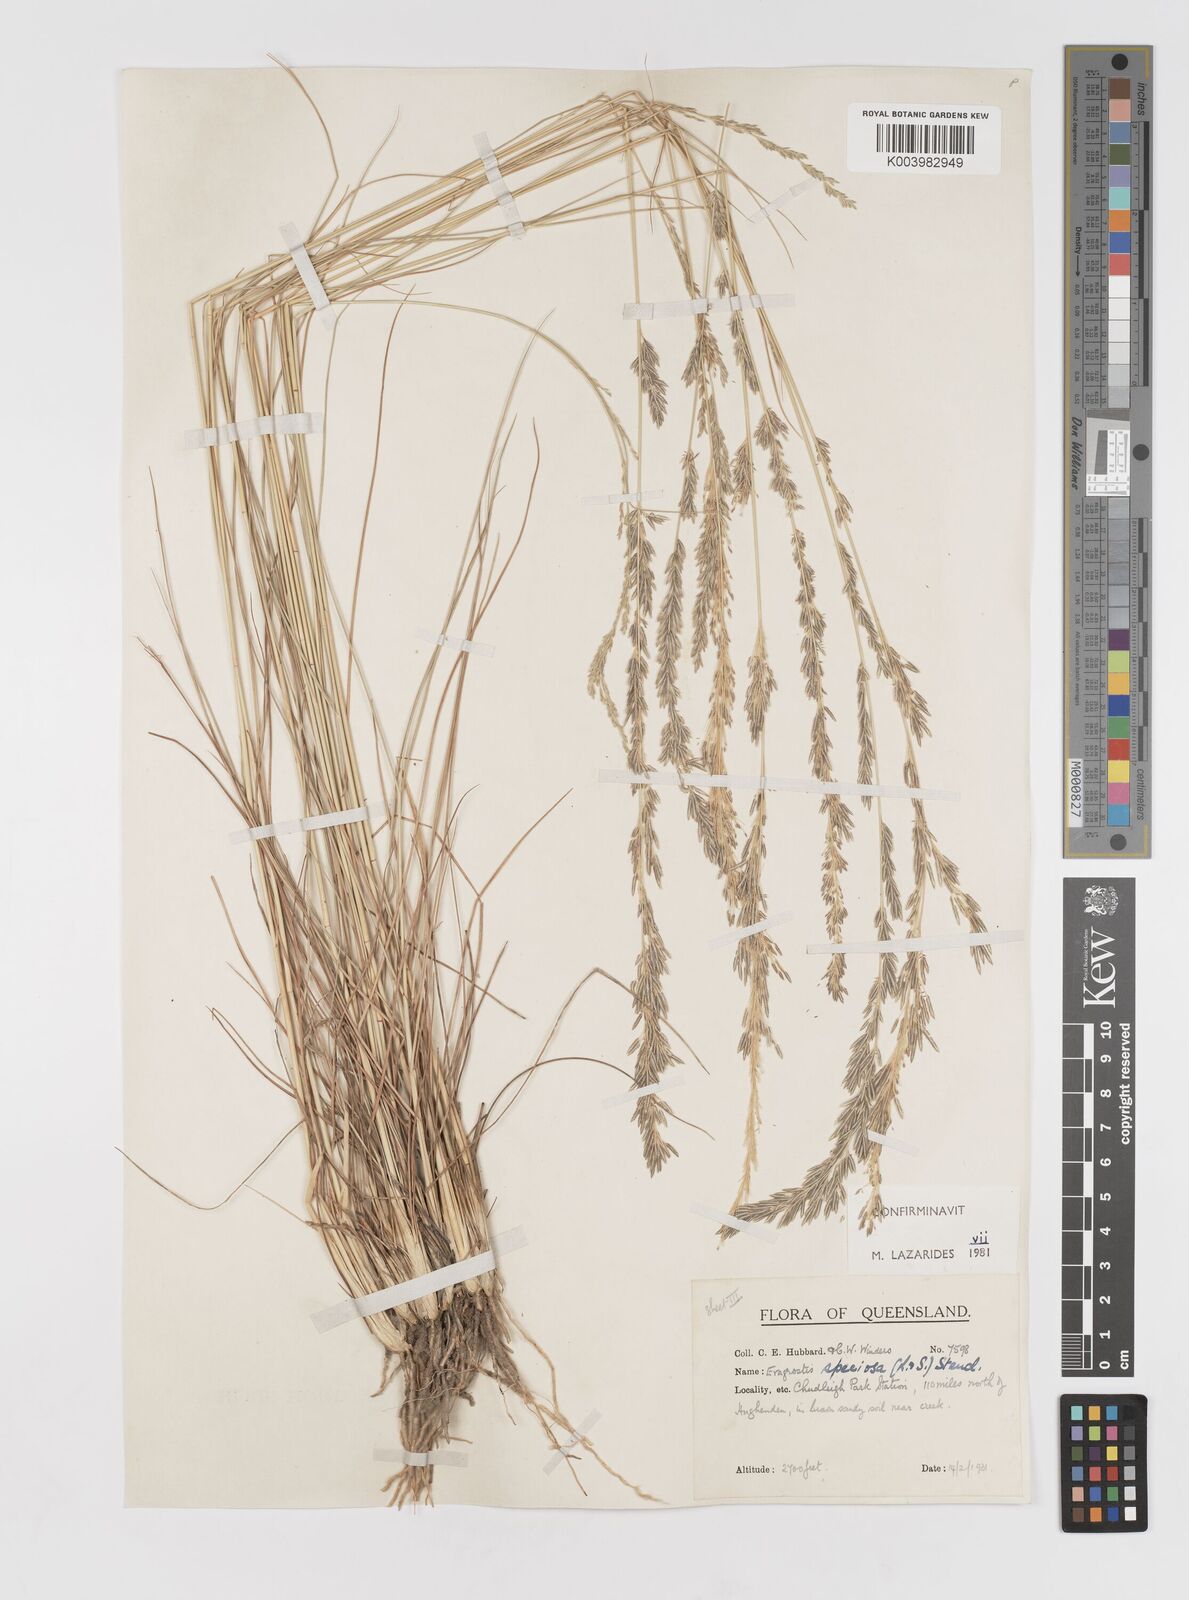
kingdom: Plantae
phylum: Tracheophyta
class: Liliopsida
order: Poales
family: Poaceae
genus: Eragrostis
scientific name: Eragrostis speciosa
